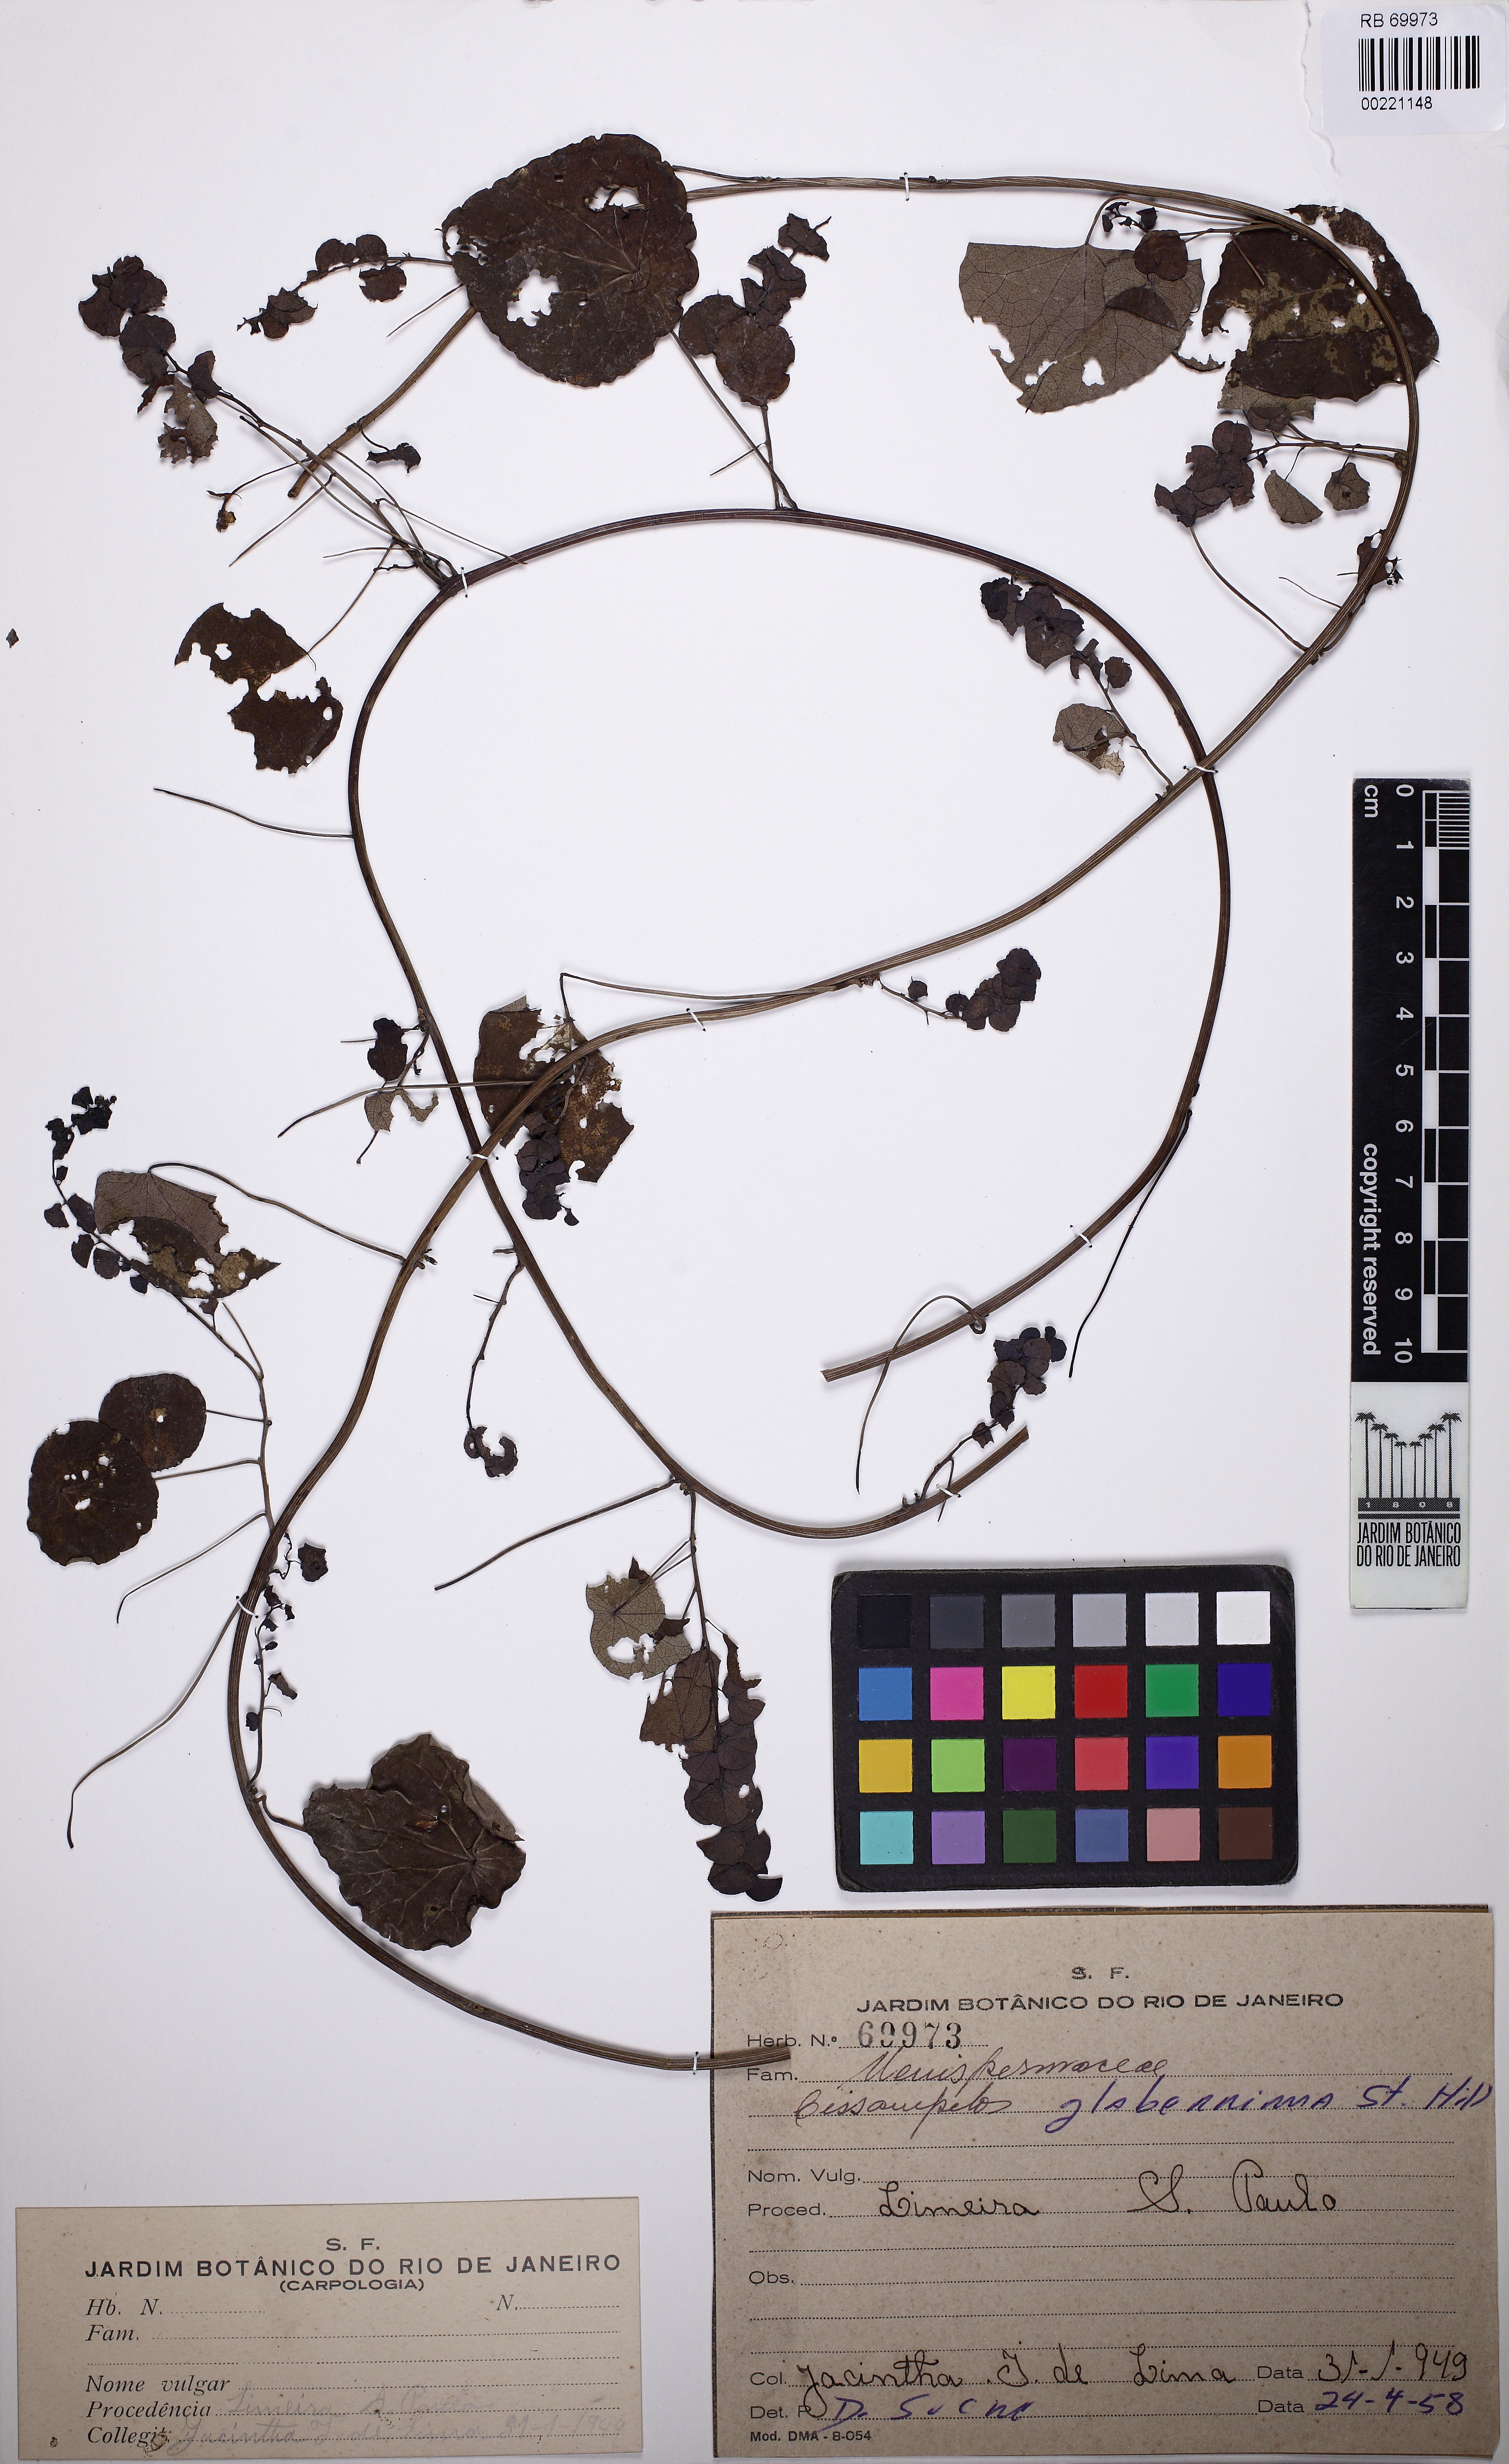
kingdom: Plantae
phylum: Tracheophyta
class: Magnoliopsida
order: Ranunculales
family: Menispermaceae
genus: Cissampelos
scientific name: Cissampelos glaberrima
